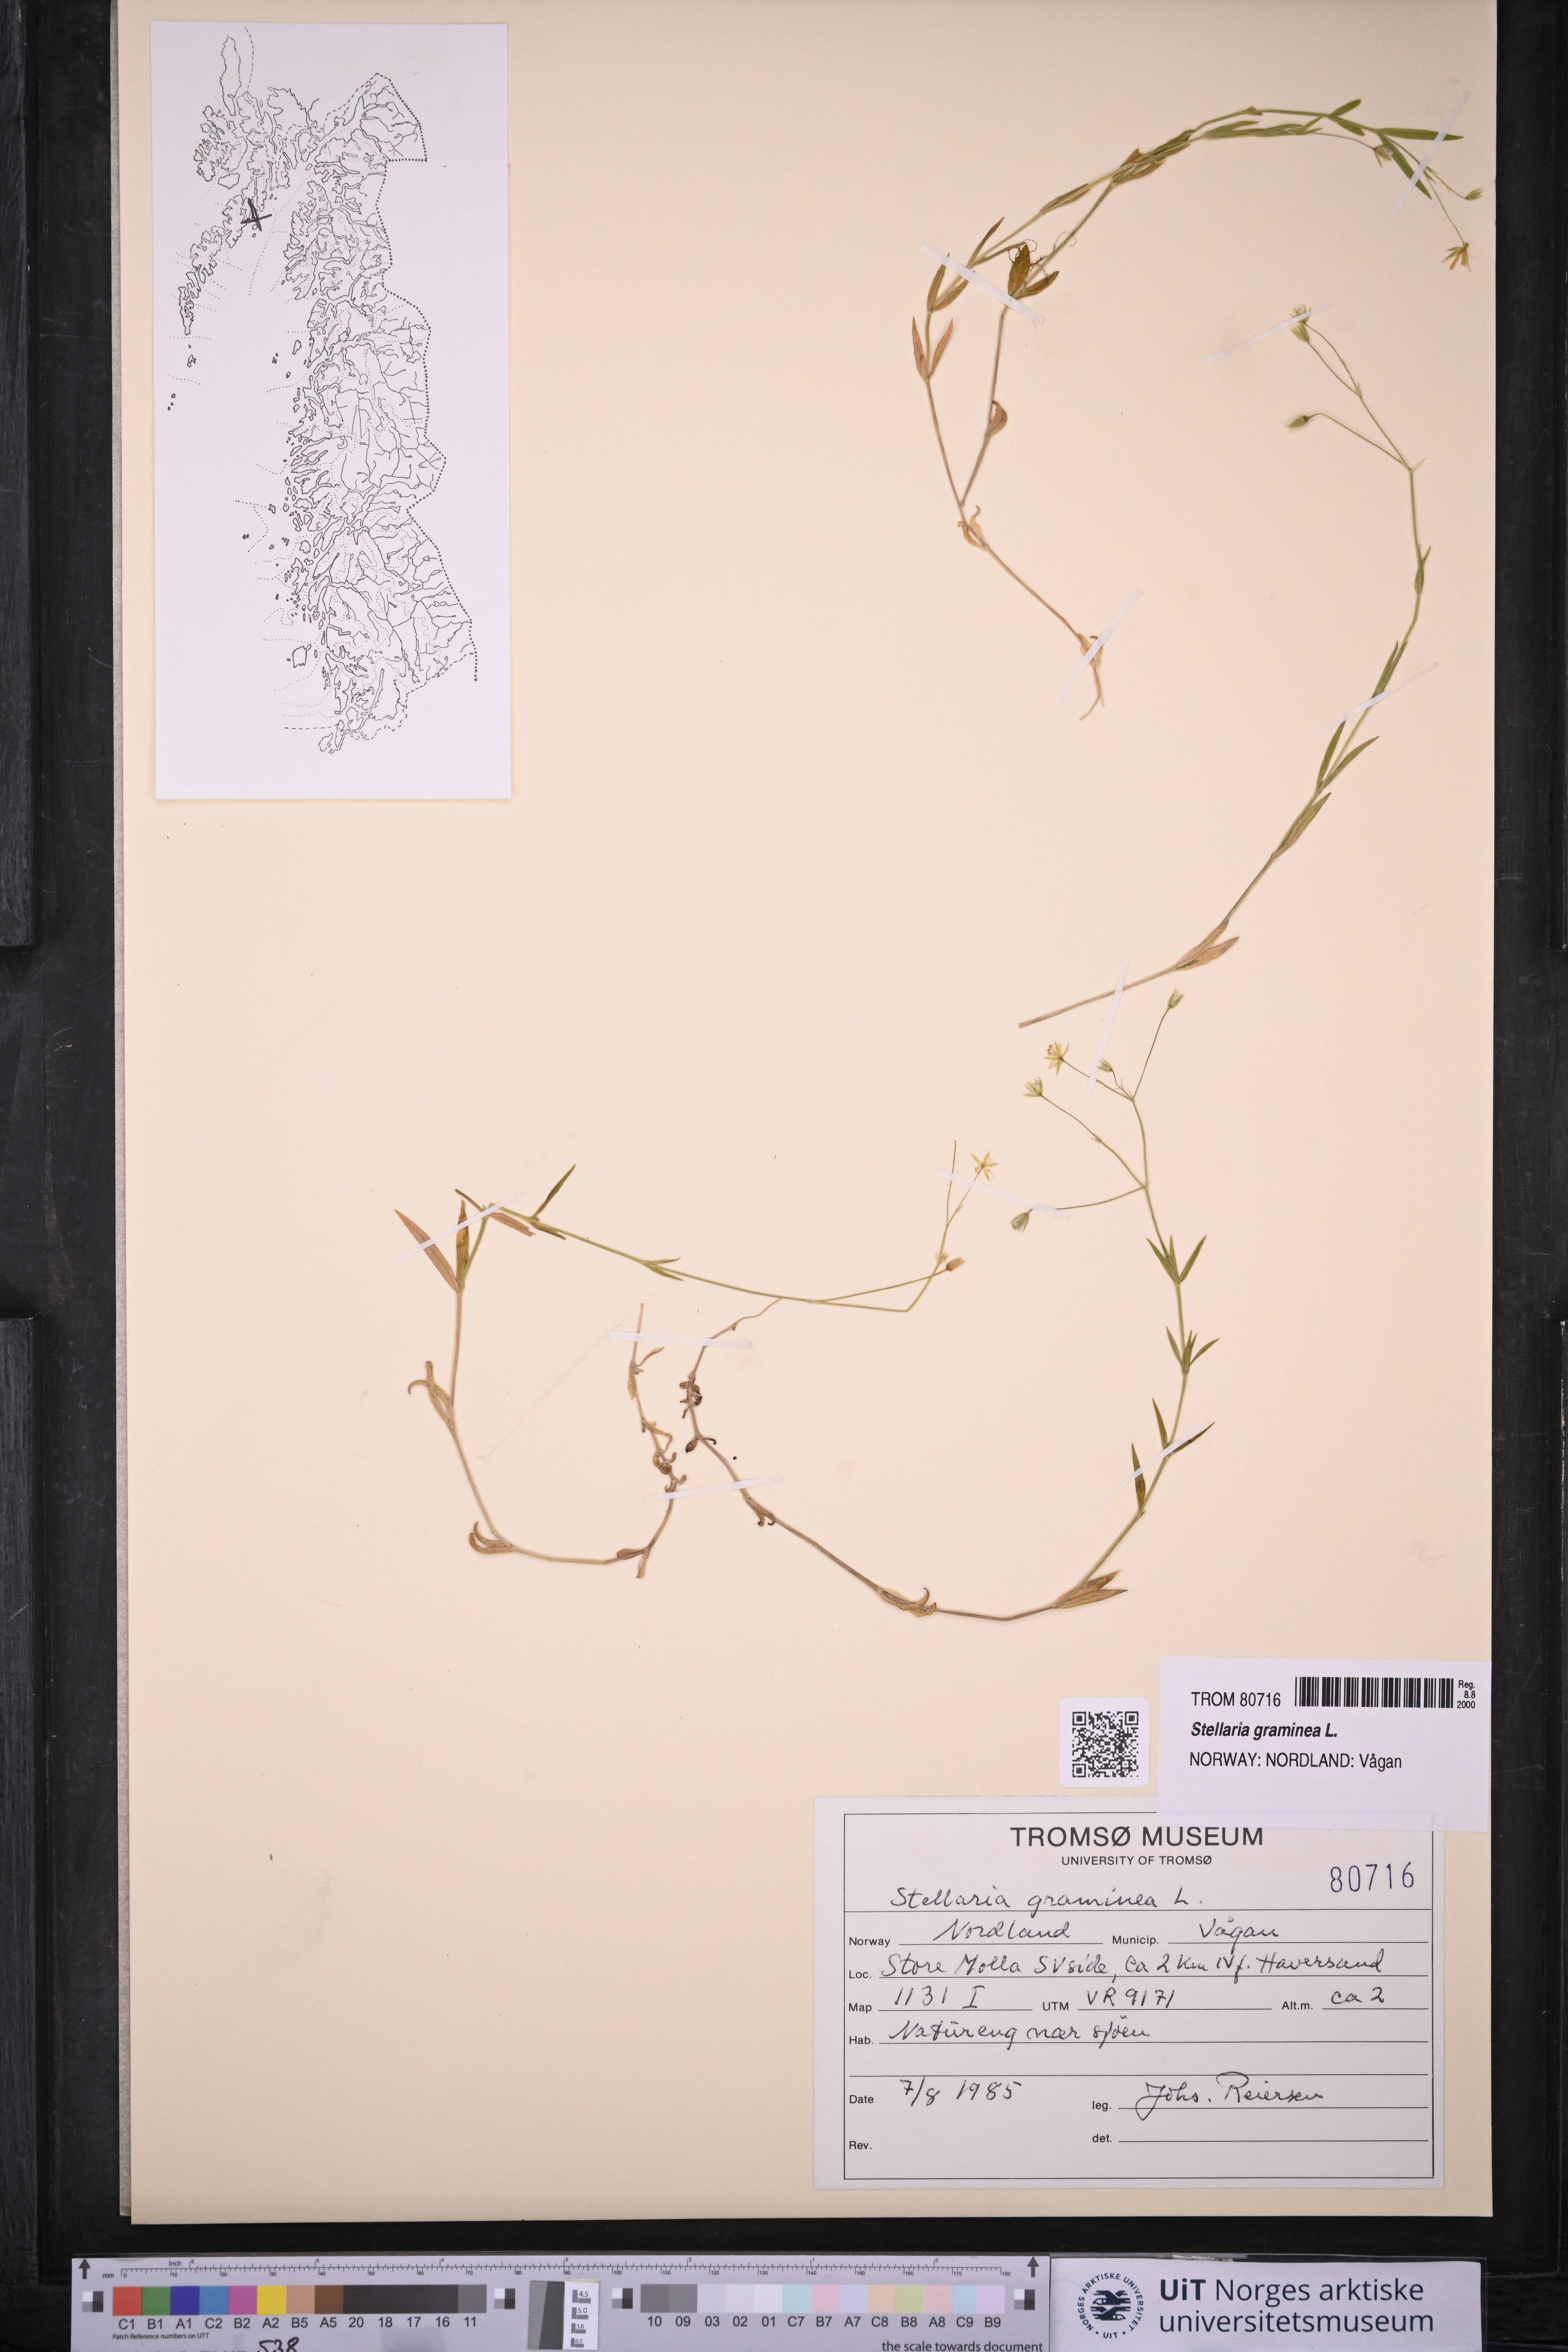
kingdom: Plantae
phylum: Tracheophyta
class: Magnoliopsida
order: Caryophyllales
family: Caryophyllaceae
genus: Stellaria
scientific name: Stellaria graminea
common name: Grass-like starwort
